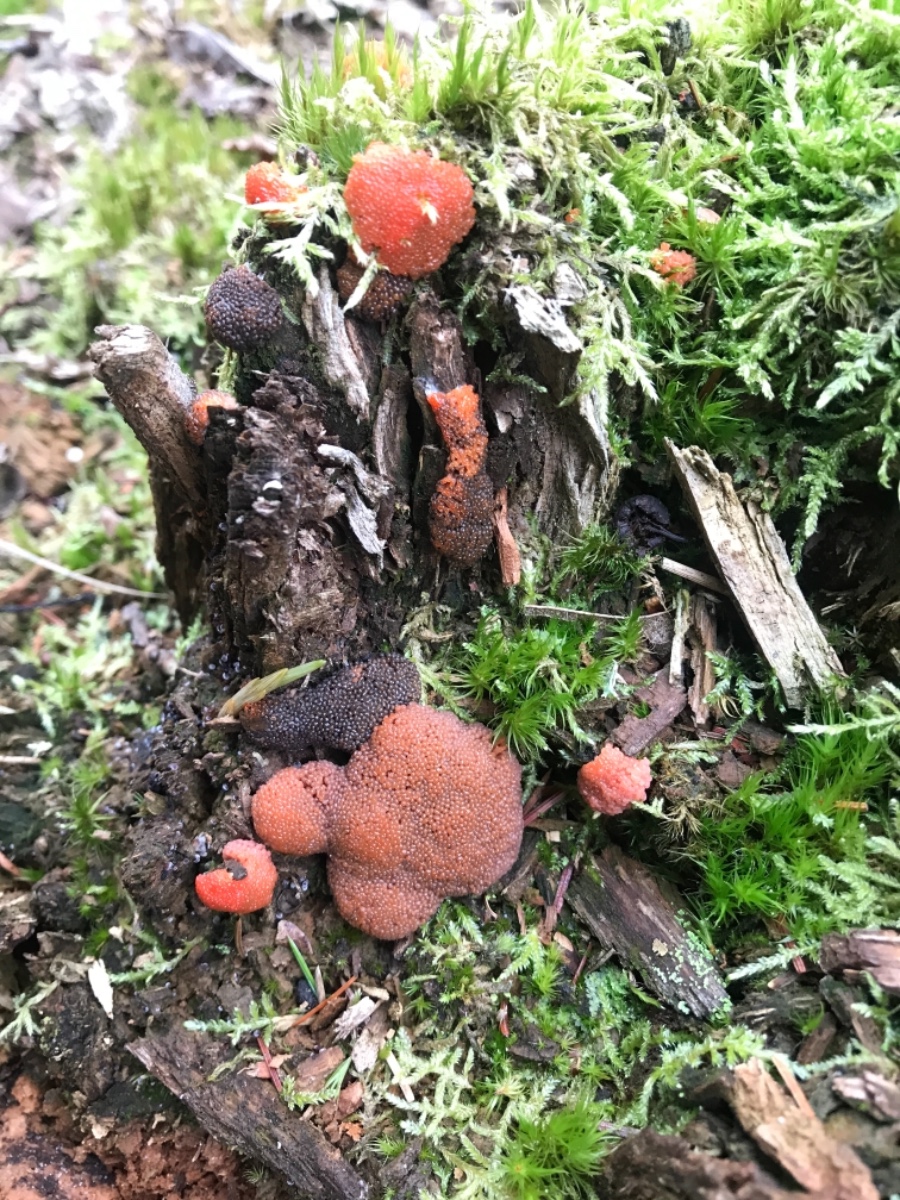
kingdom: Protozoa
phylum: Mycetozoa
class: Myxomycetes
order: Cribrariales
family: Tubiferaceae
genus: Tubifera
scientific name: Tubifera ferruginosa
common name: kanel-støvrør
